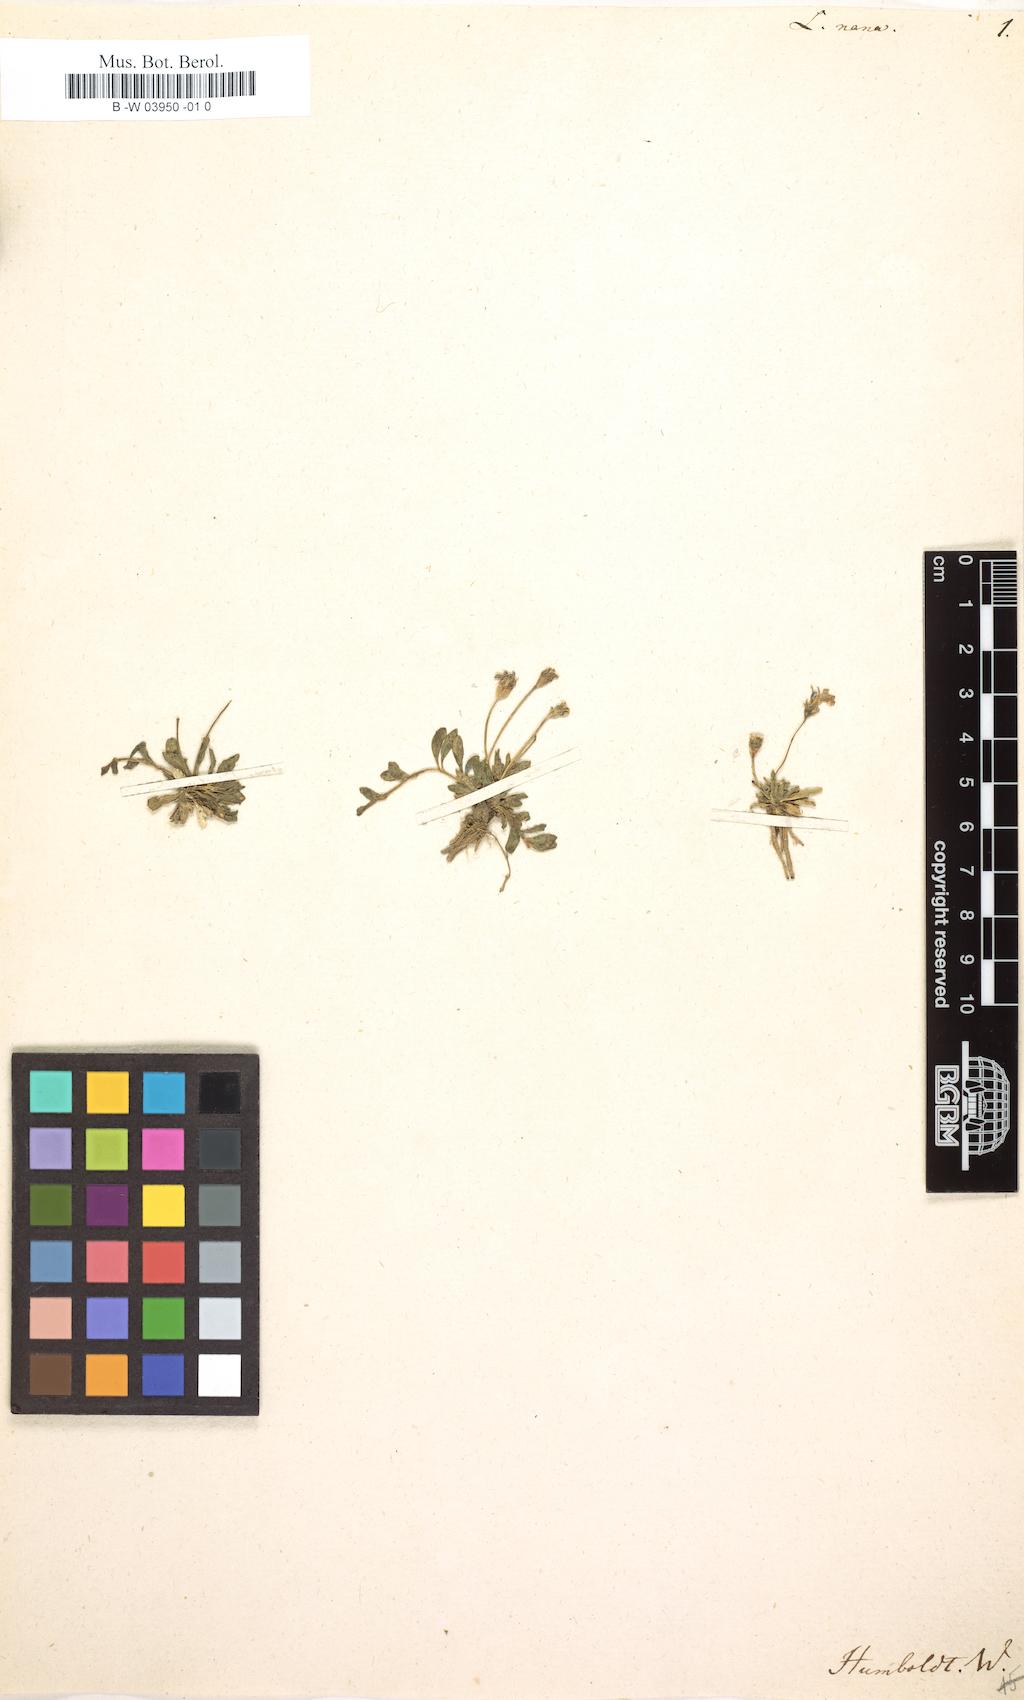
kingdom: Plantae
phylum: Tracheophyta
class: Magnoliopsida
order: Asterales
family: Campanulaceae
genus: Lobelia
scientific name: Lobelia nana
